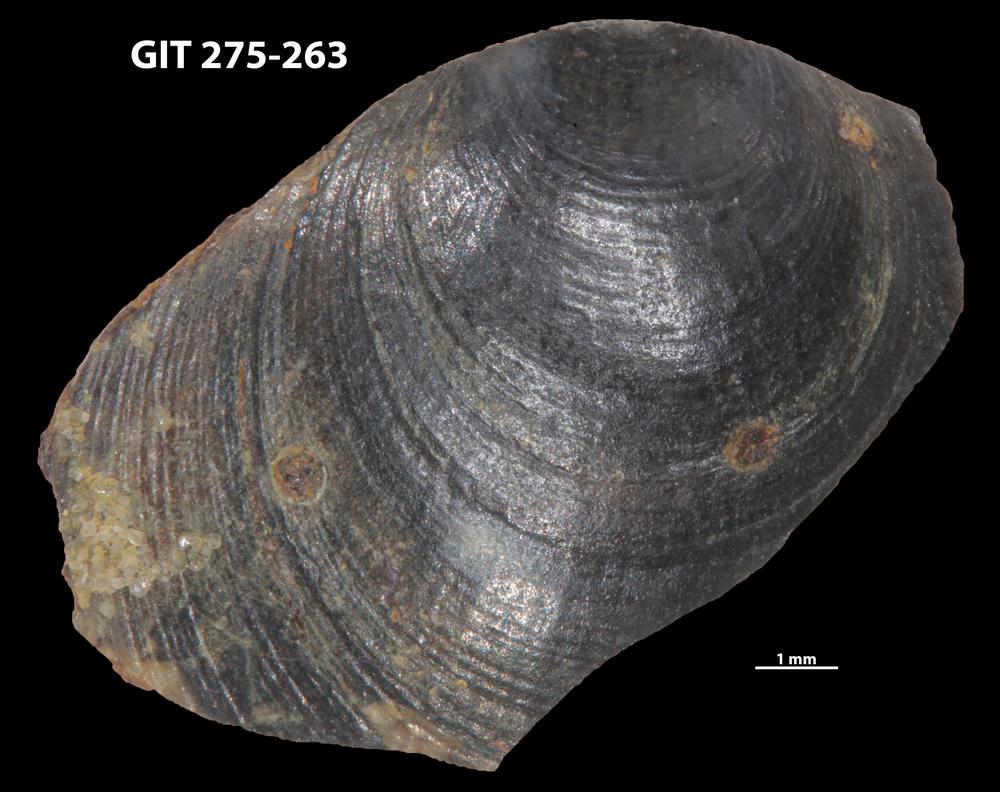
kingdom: Animalia
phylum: Porifera
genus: Ungula
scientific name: Ungula ingricus
